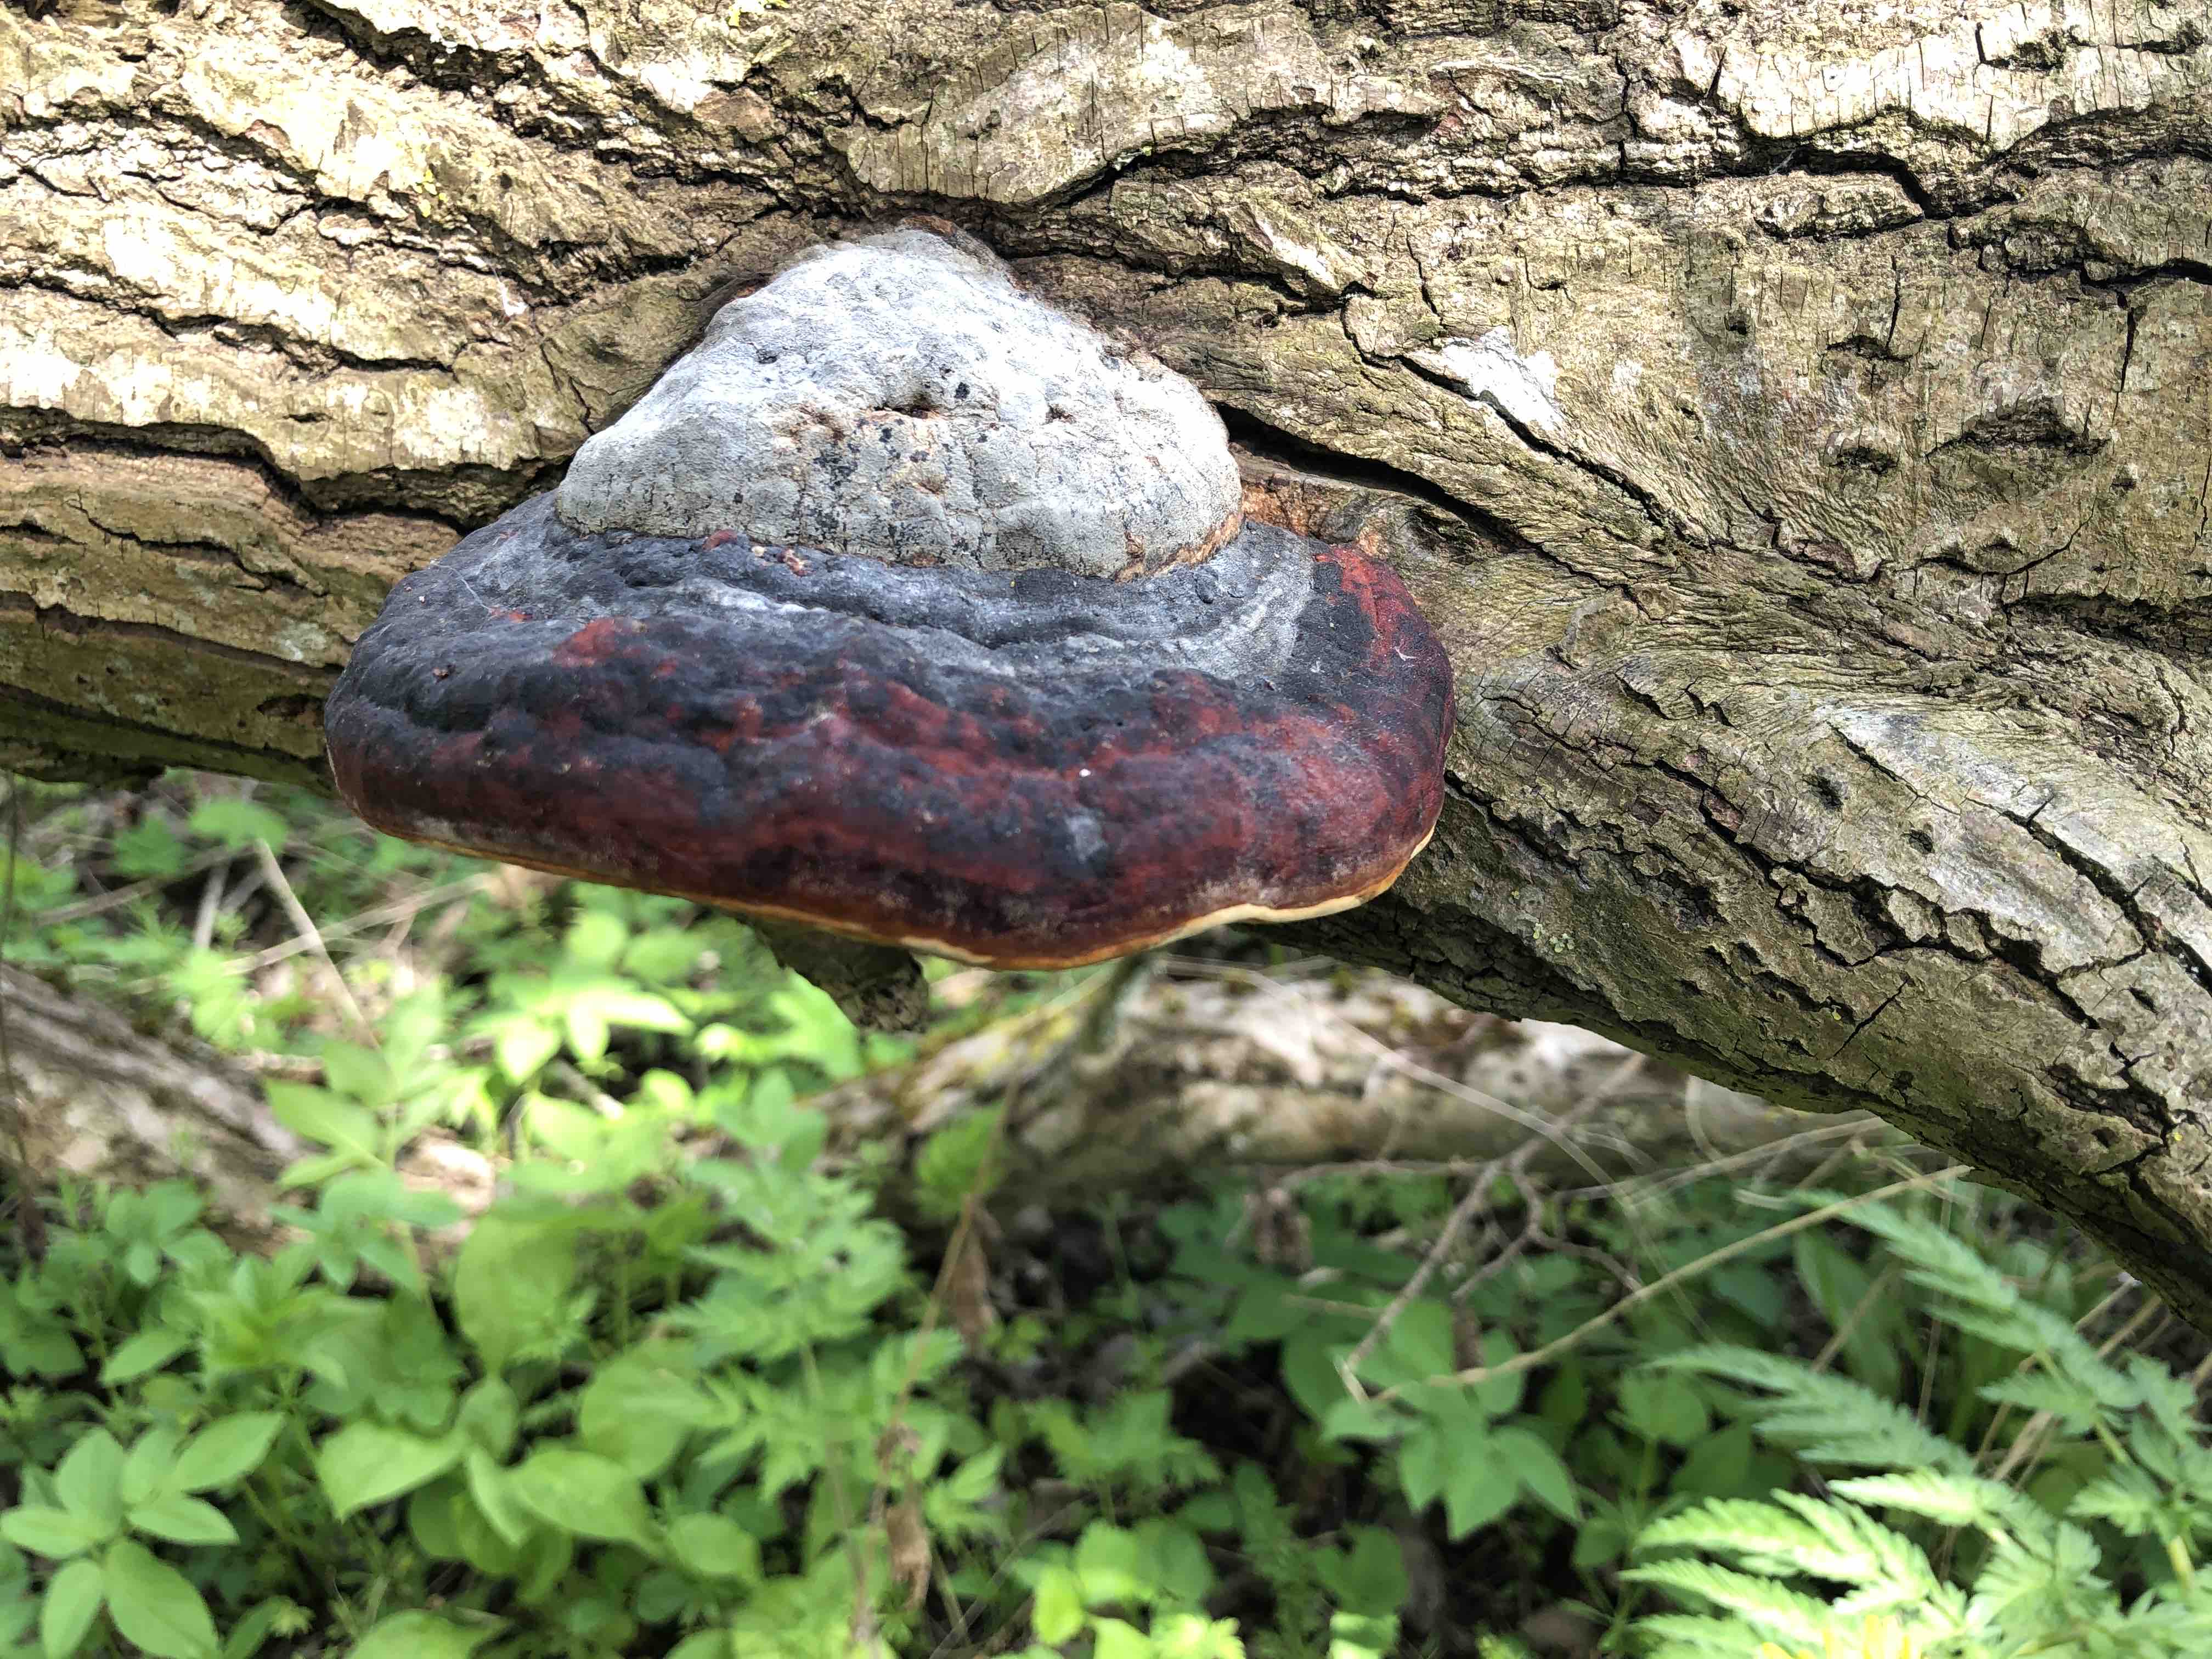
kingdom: Fungi
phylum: Basidiomycota
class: Agaricomycetes
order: Polyporales
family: Fomitopsidaceae
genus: Fomitopsis
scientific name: Fomitopsis pinicola
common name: randbæltet hovporesvamp
